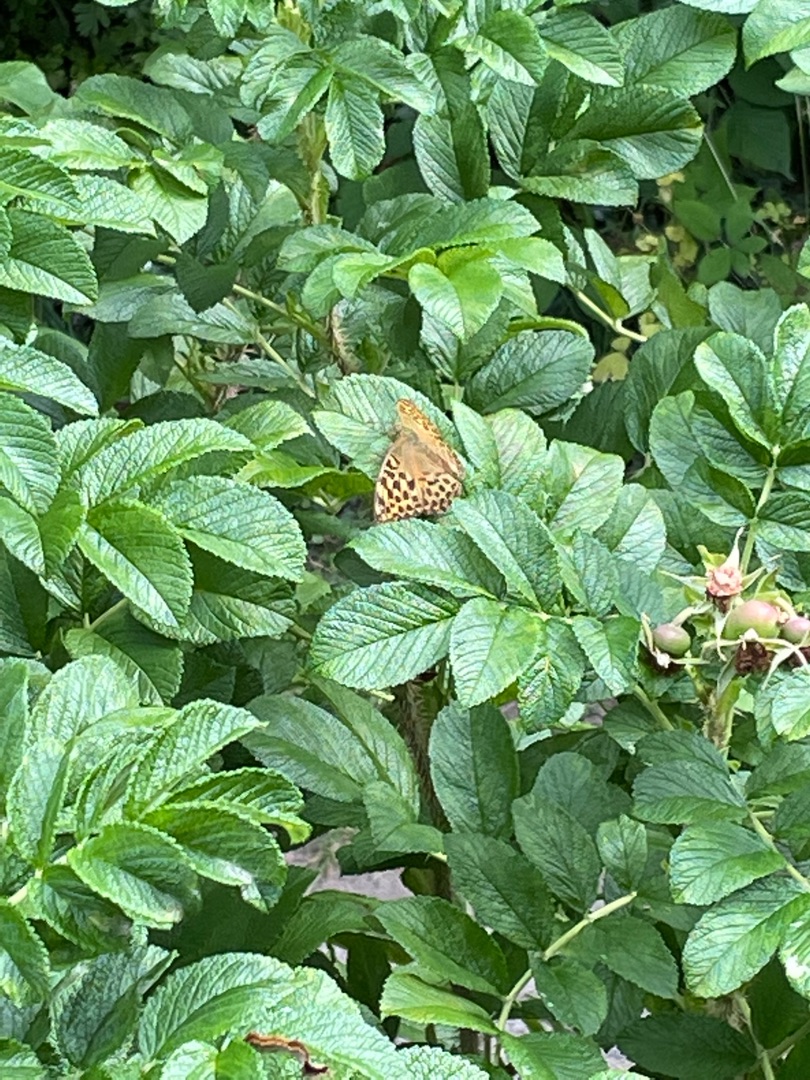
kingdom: Animalia
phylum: Arthropoda
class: Insecta
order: Lepidoptera
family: Nymphalidae
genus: Issoria
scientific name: Issoria lathonia
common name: Storplettet perlemorsommerfugl
